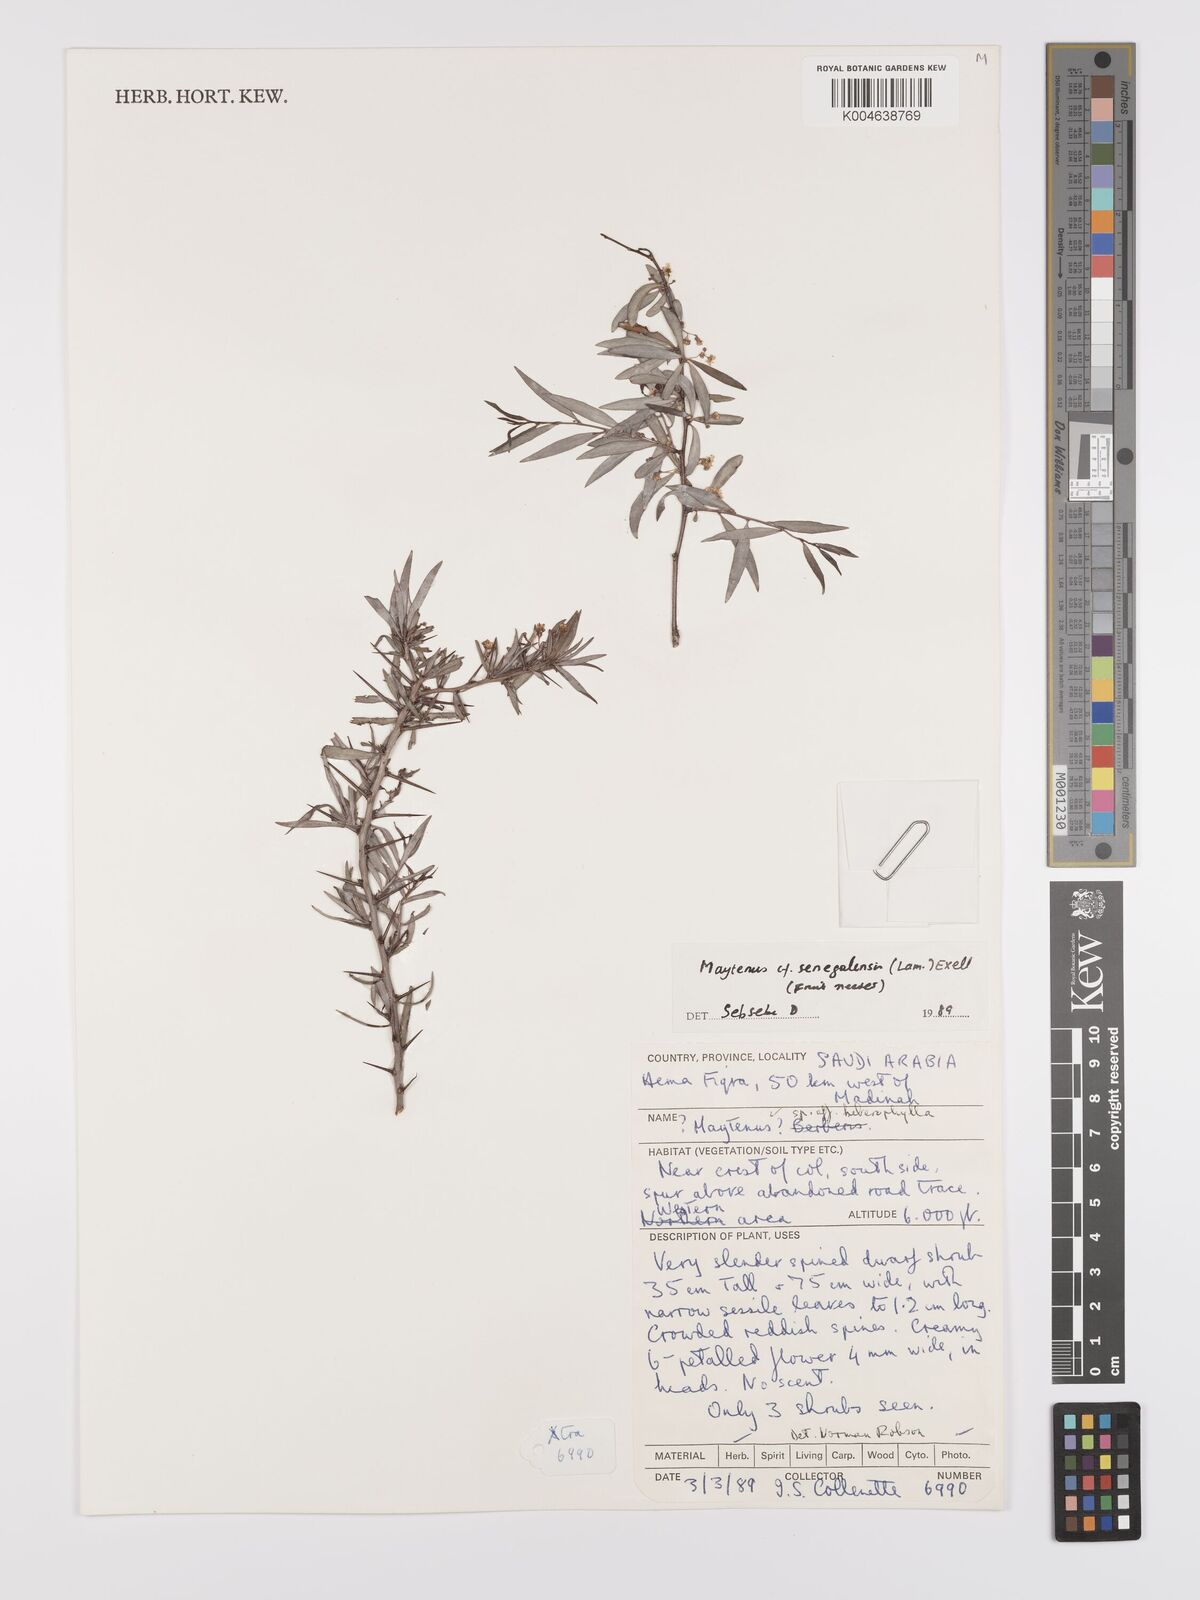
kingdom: Plantae
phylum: Tracheophyta
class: Magnoliopsida
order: Celastrales
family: Celastraceae
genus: Gymnosporia
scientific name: Gymnosporia senegalensis
